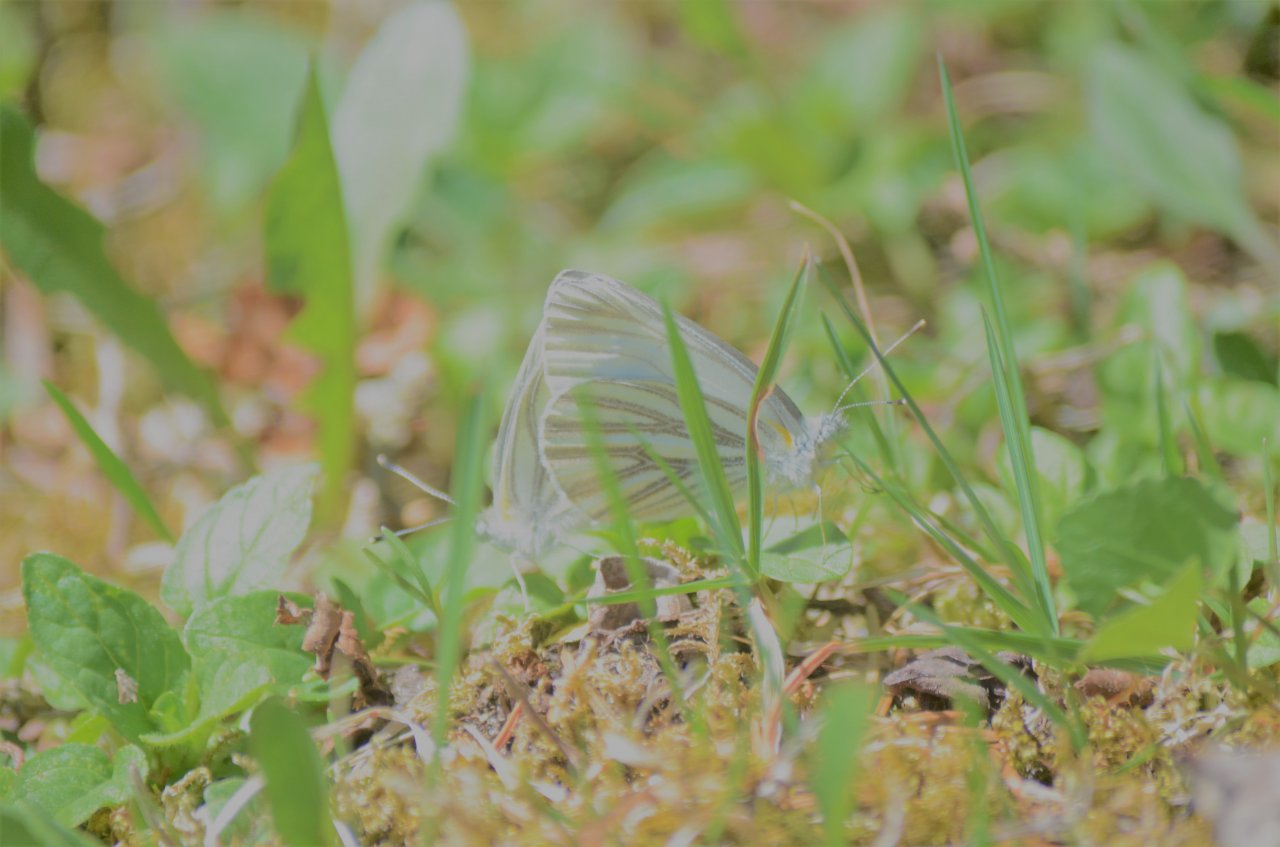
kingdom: Animalia
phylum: Arthropoda
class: Insecta
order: Lepidoptera
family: Pieridae
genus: Pieris
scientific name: Pieris oleracea
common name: Mustard White
